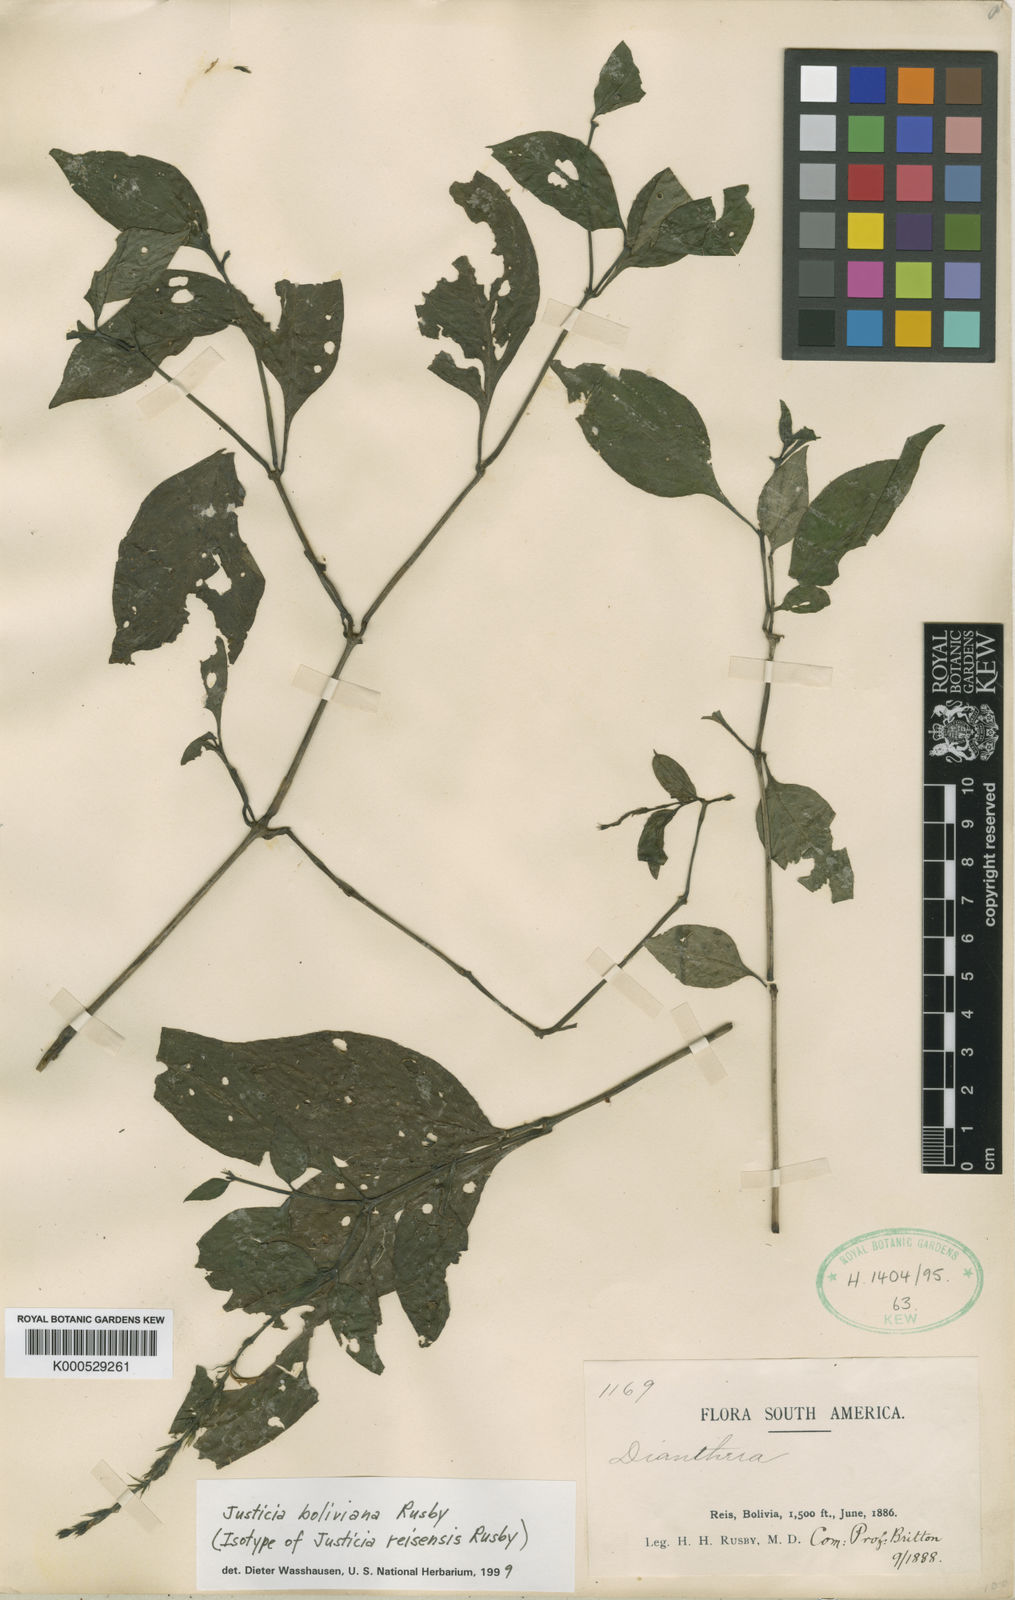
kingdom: Plantae
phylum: Tracheophyta
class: Magnoliopsida
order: Lamiales
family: Acanthaceae
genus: Justicia
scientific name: Justicia boliviana
